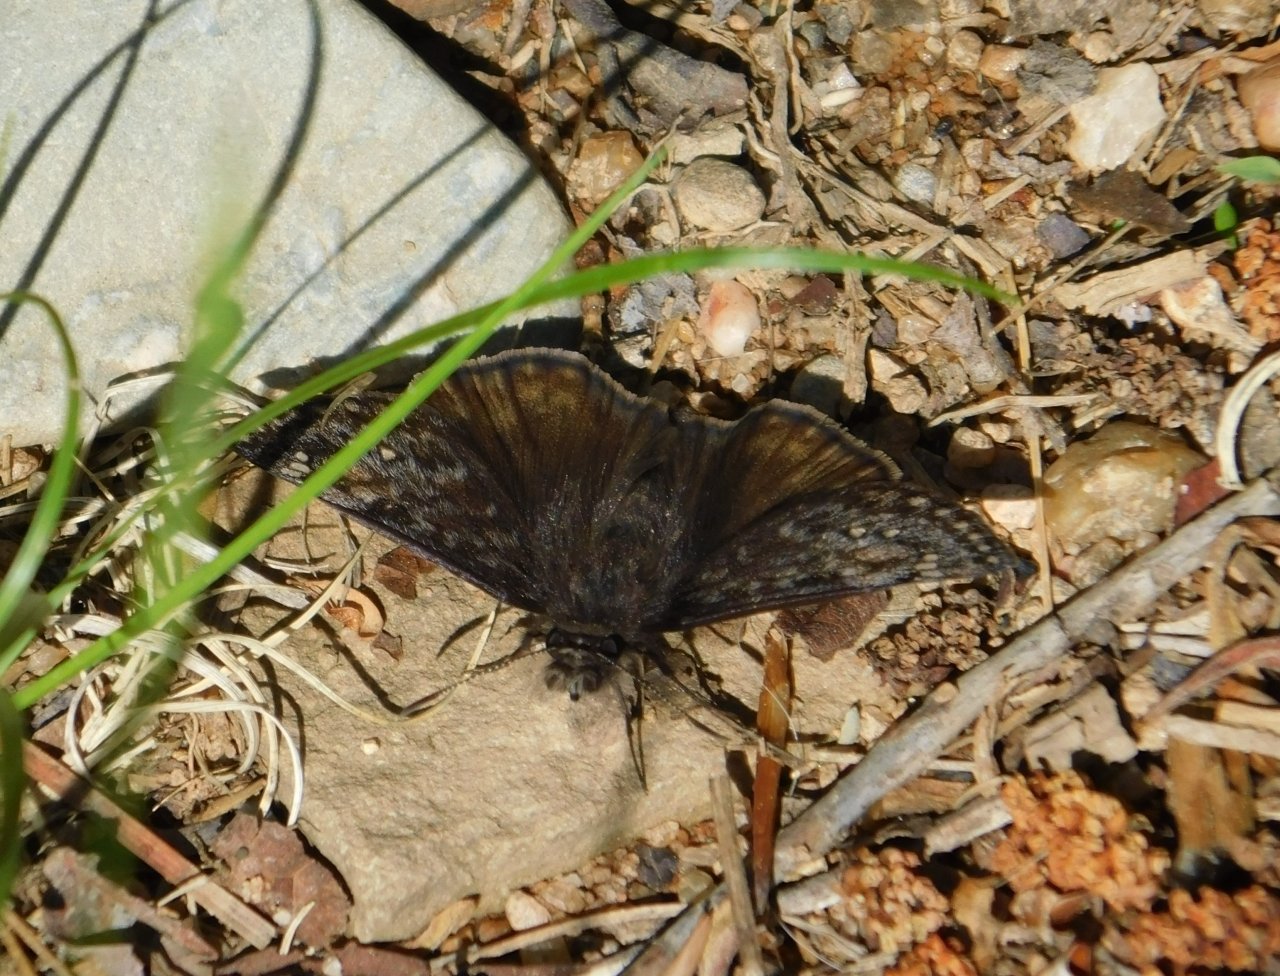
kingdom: Animalia
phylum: Arthropoda
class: Insecta
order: Lepidoptera
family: Hesperiidae
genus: Gesta
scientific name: Gesta
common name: Juvenal's Duskywing
